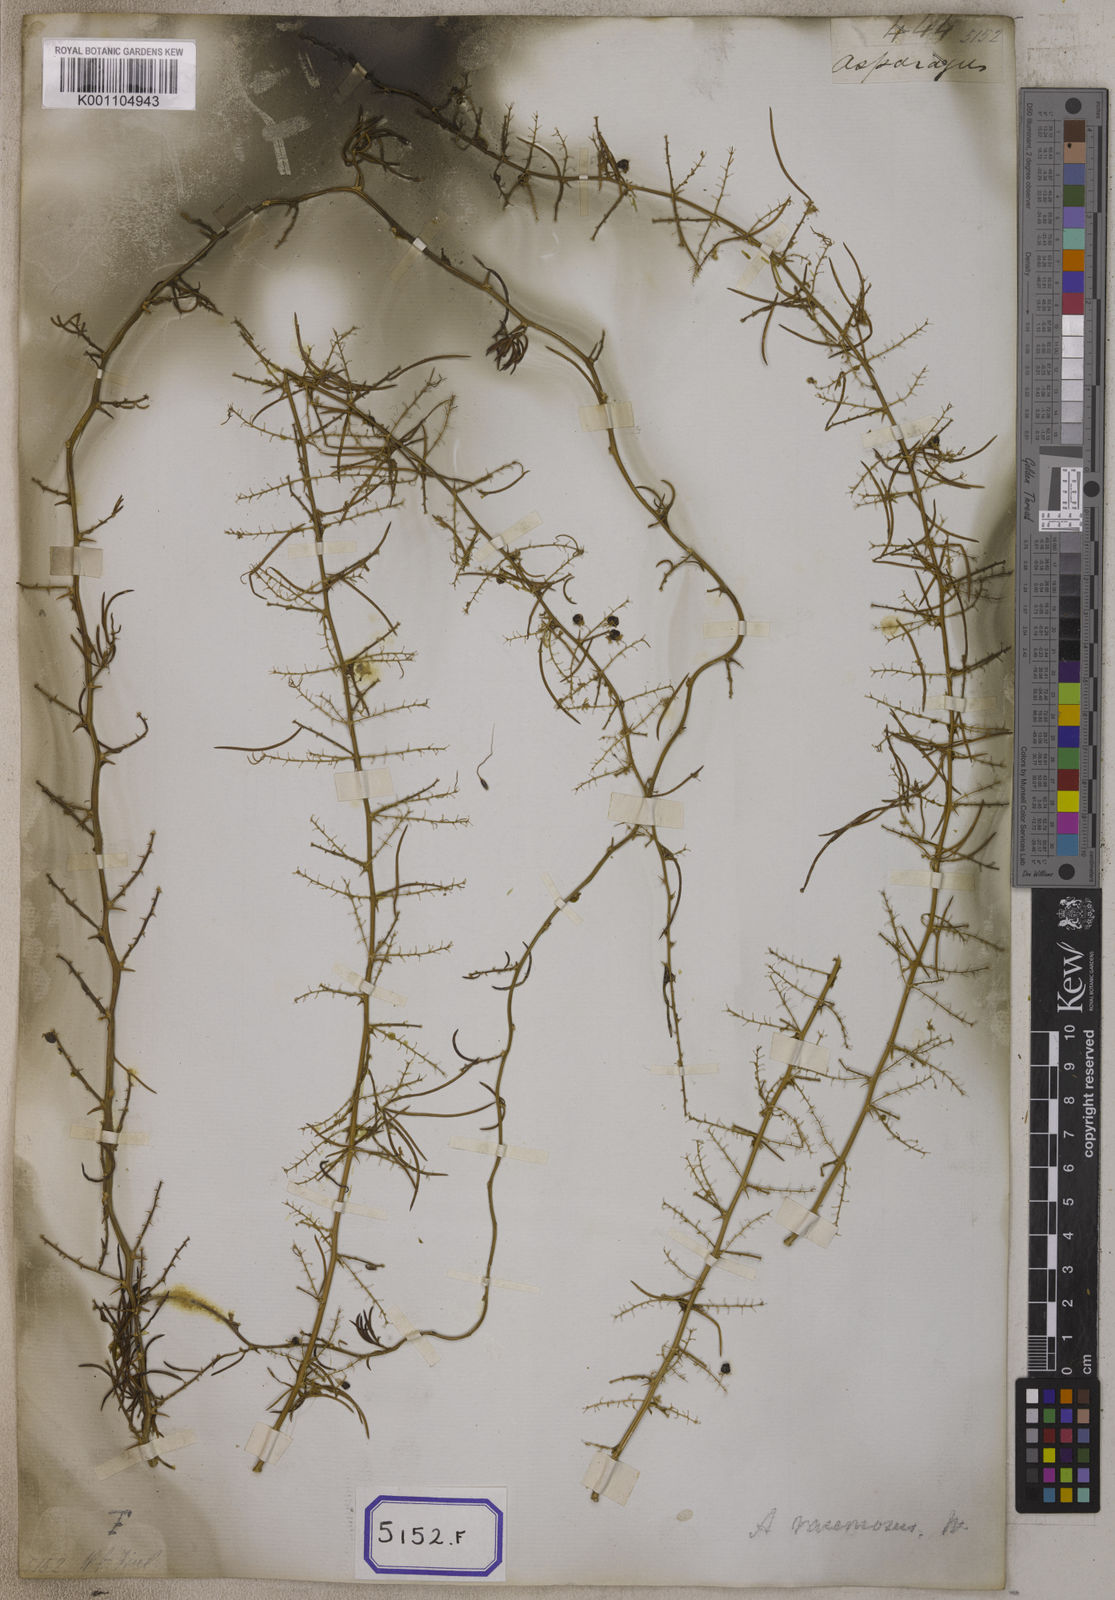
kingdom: Plantae
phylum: Tracheophyta
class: Liliopsida
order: Asparagales
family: Asparagaceae
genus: Asparagus
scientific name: Asparagus racemosus
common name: Asparagus-fern
